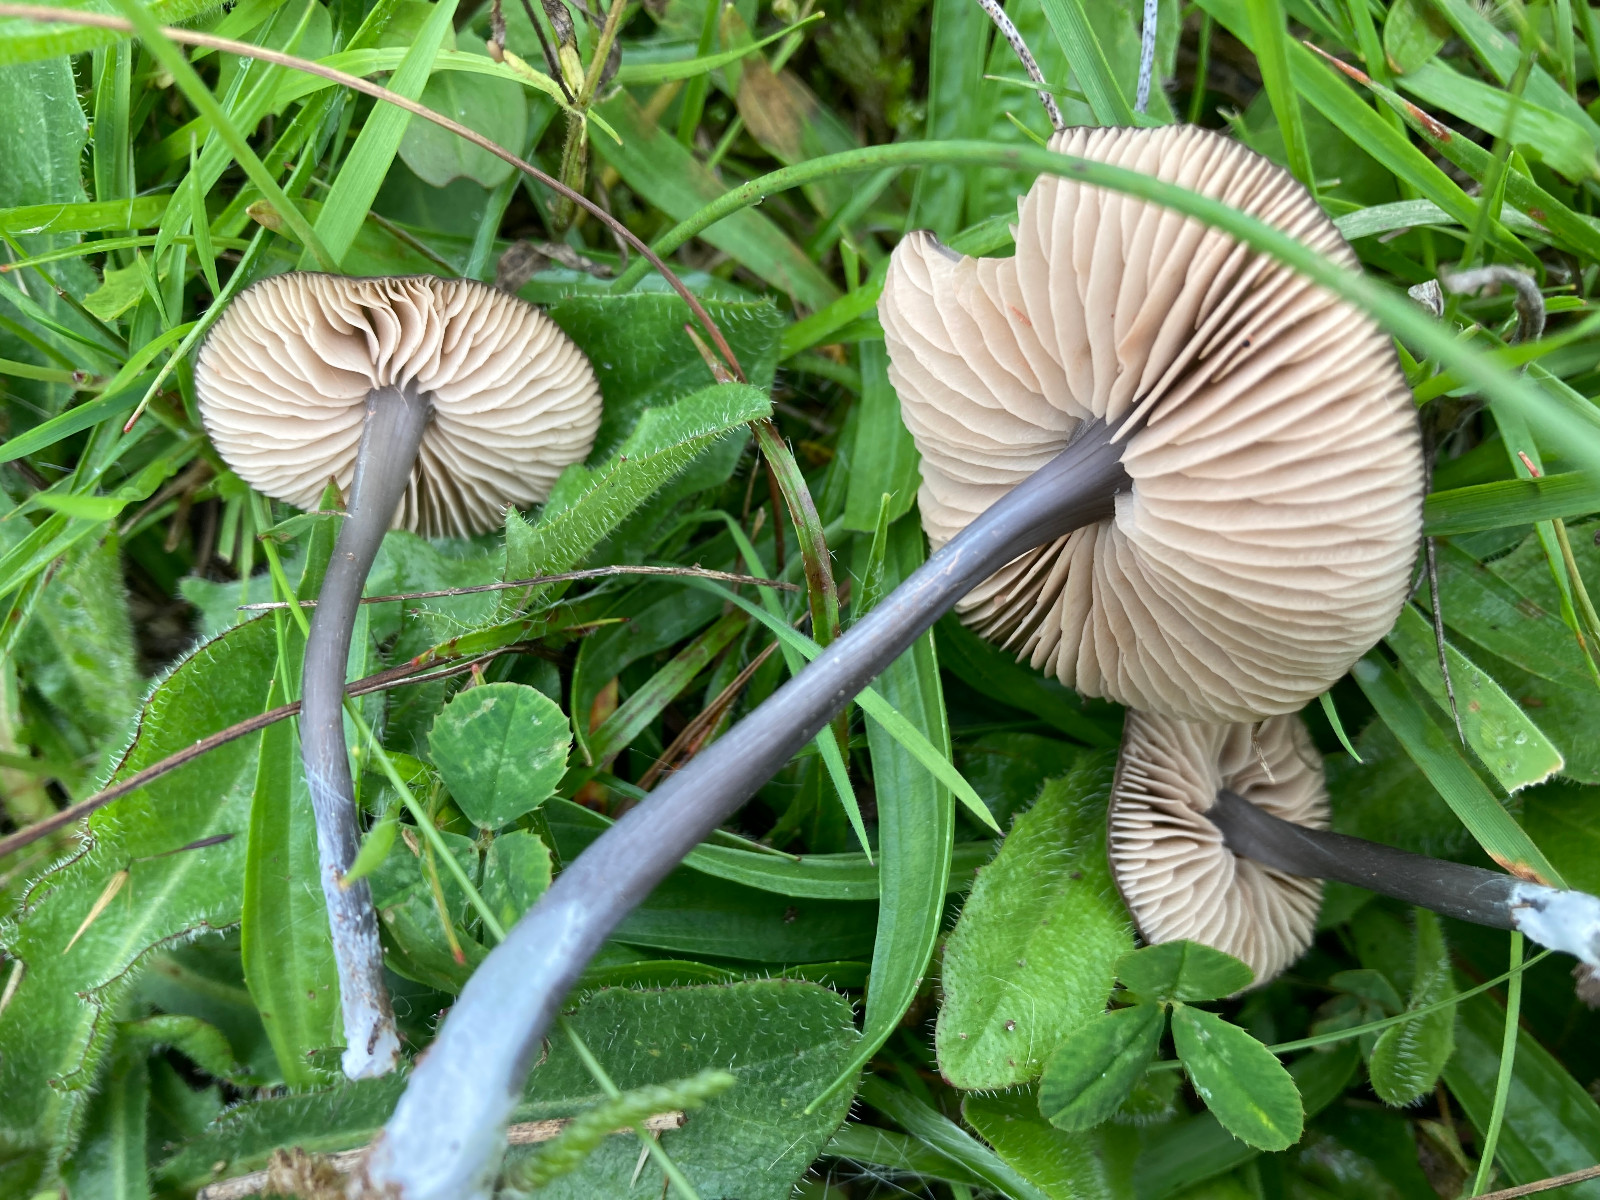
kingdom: Fungi
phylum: Basidiomycota
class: Agaricomycetes
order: Agaricales
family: Entolomataceae
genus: Entoloma
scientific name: Entoloma
